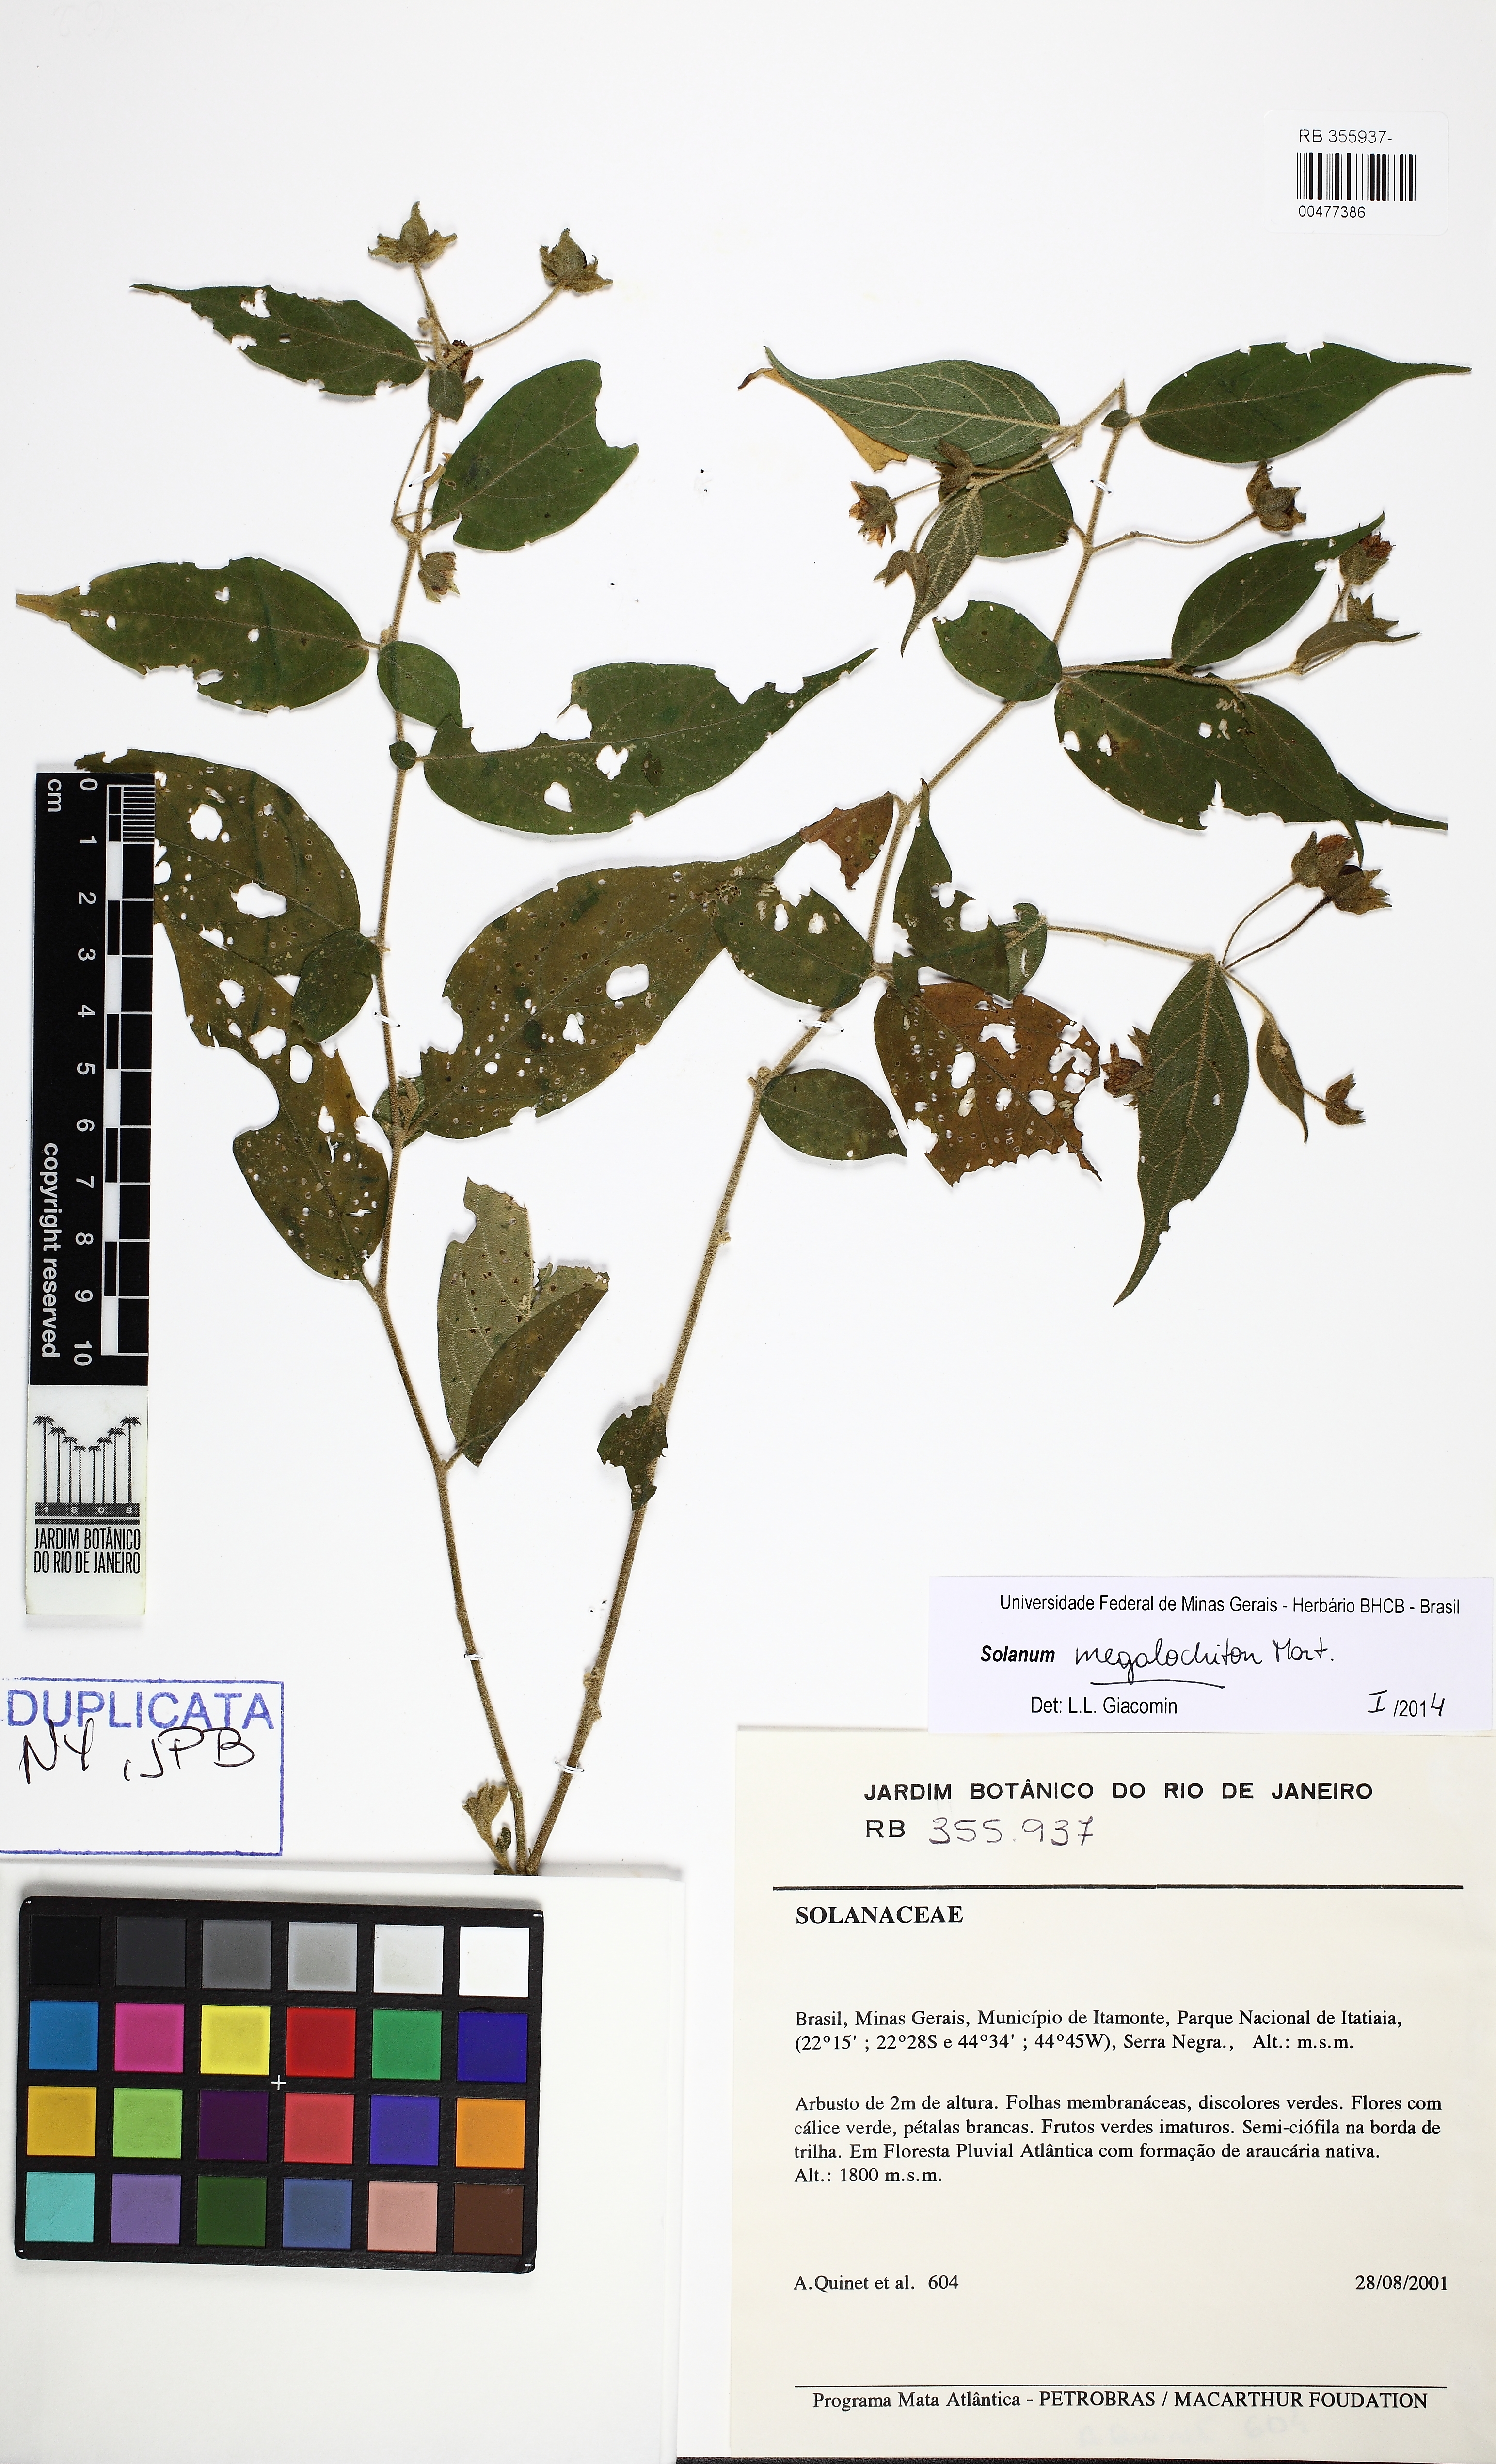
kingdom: Plantae
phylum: Tracheophyta
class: Magnoliopsida
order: Solanales
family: Solanaceae
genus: Solanum
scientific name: Solanum megalochiton
